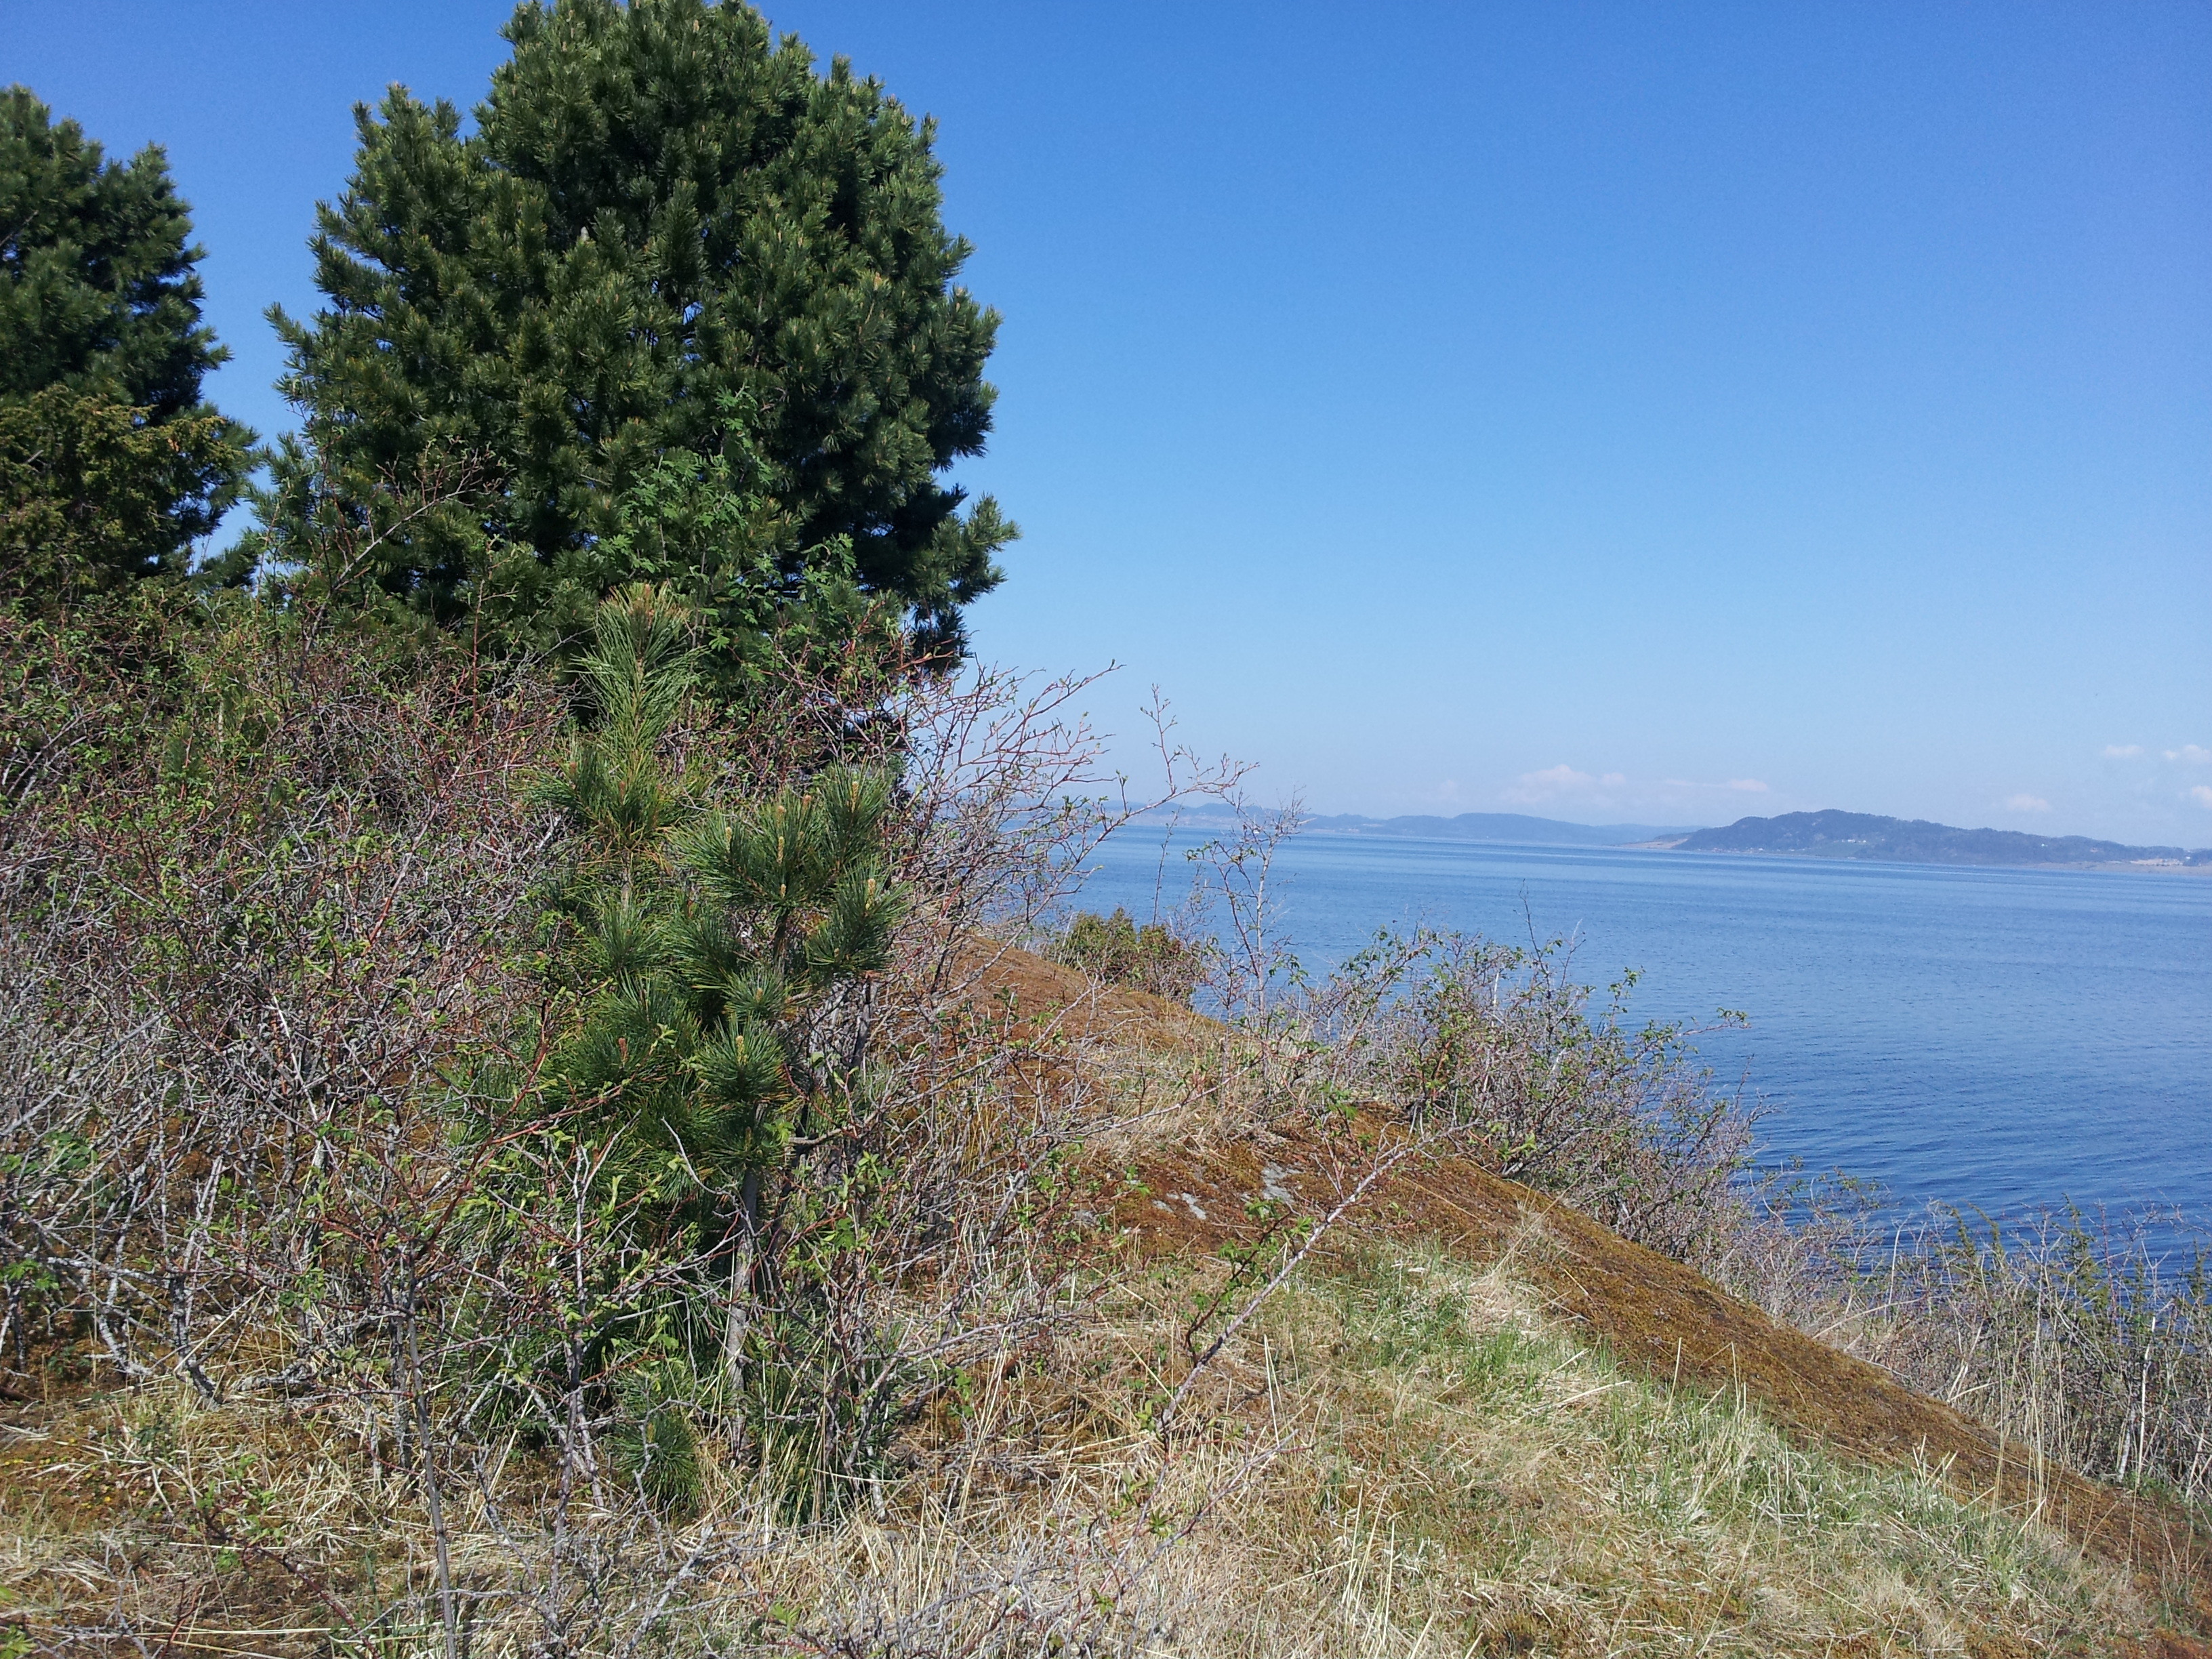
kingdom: Plantae
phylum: Tracheophyta
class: Pinopsida
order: Pinales
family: Pinaceae
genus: Pinus
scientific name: Pinus cembra
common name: Arolla pine
